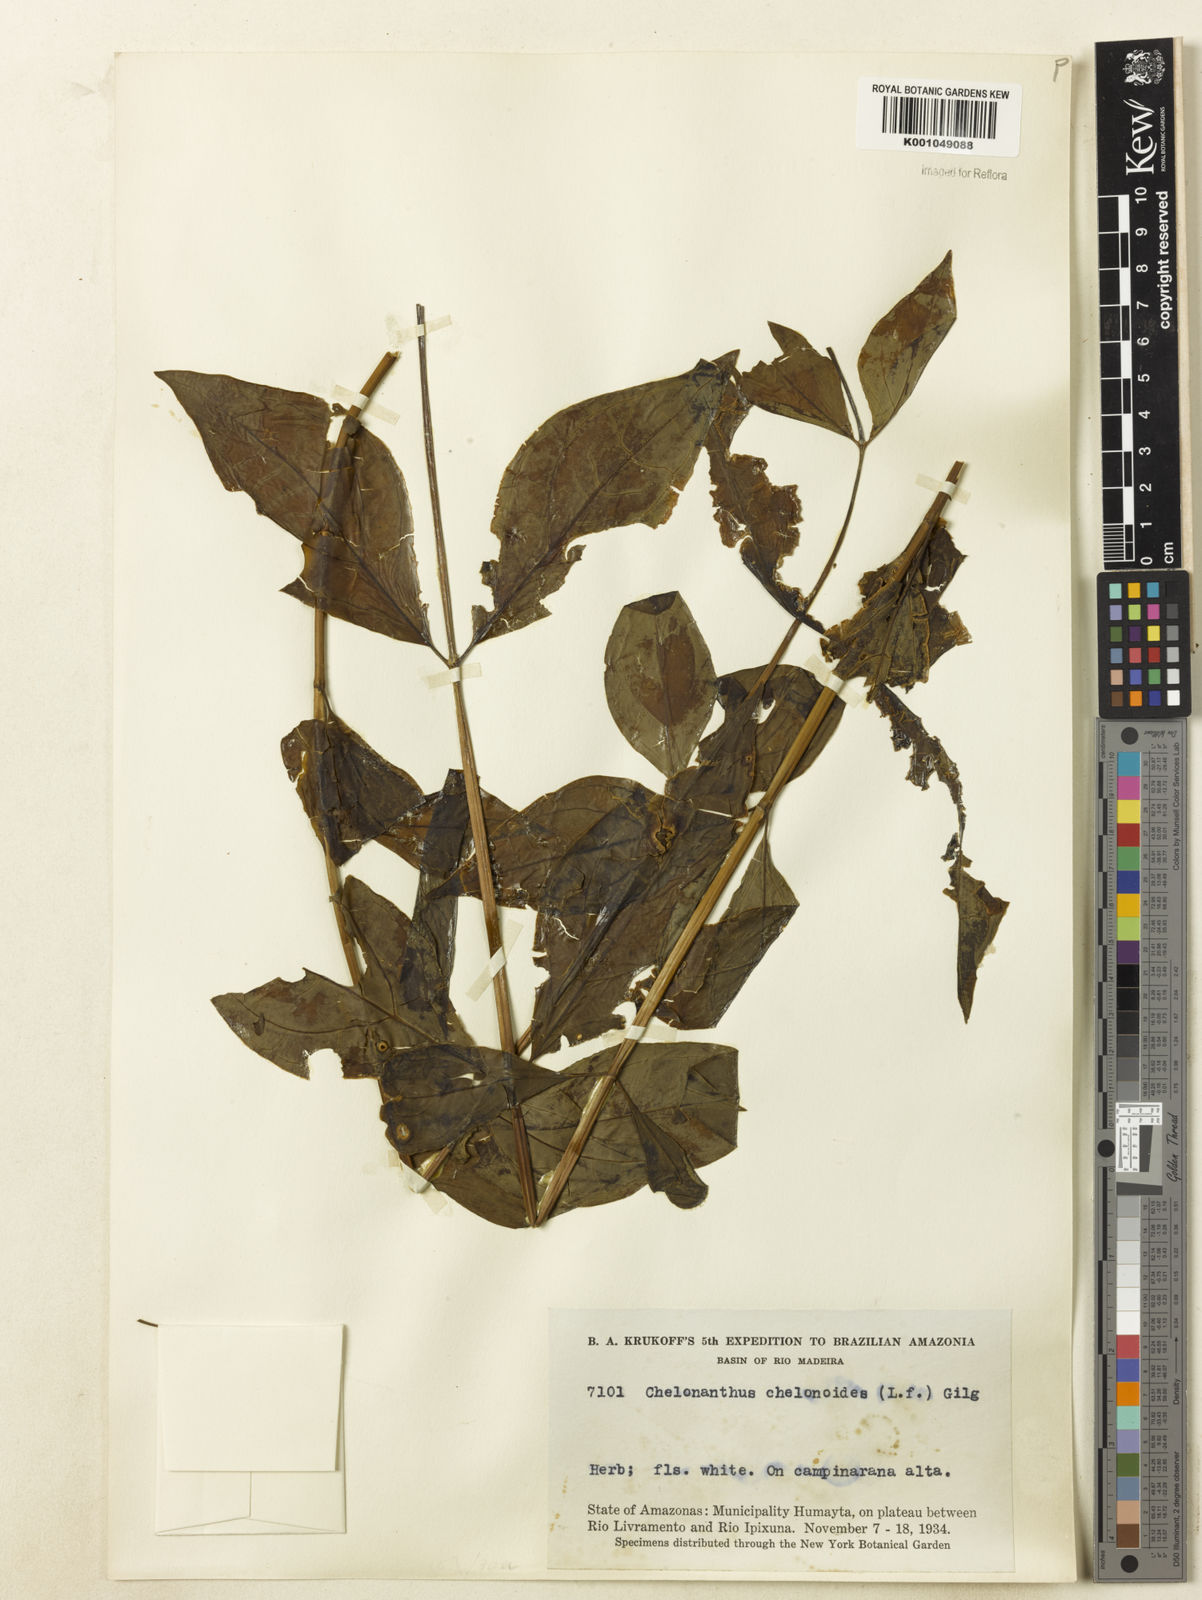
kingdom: Plantae
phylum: Tracheophyta
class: Magnoliopsida
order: Gentianales
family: Gentianaceae
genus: Chelonanthus
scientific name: Chelonanthus grandiflorus
